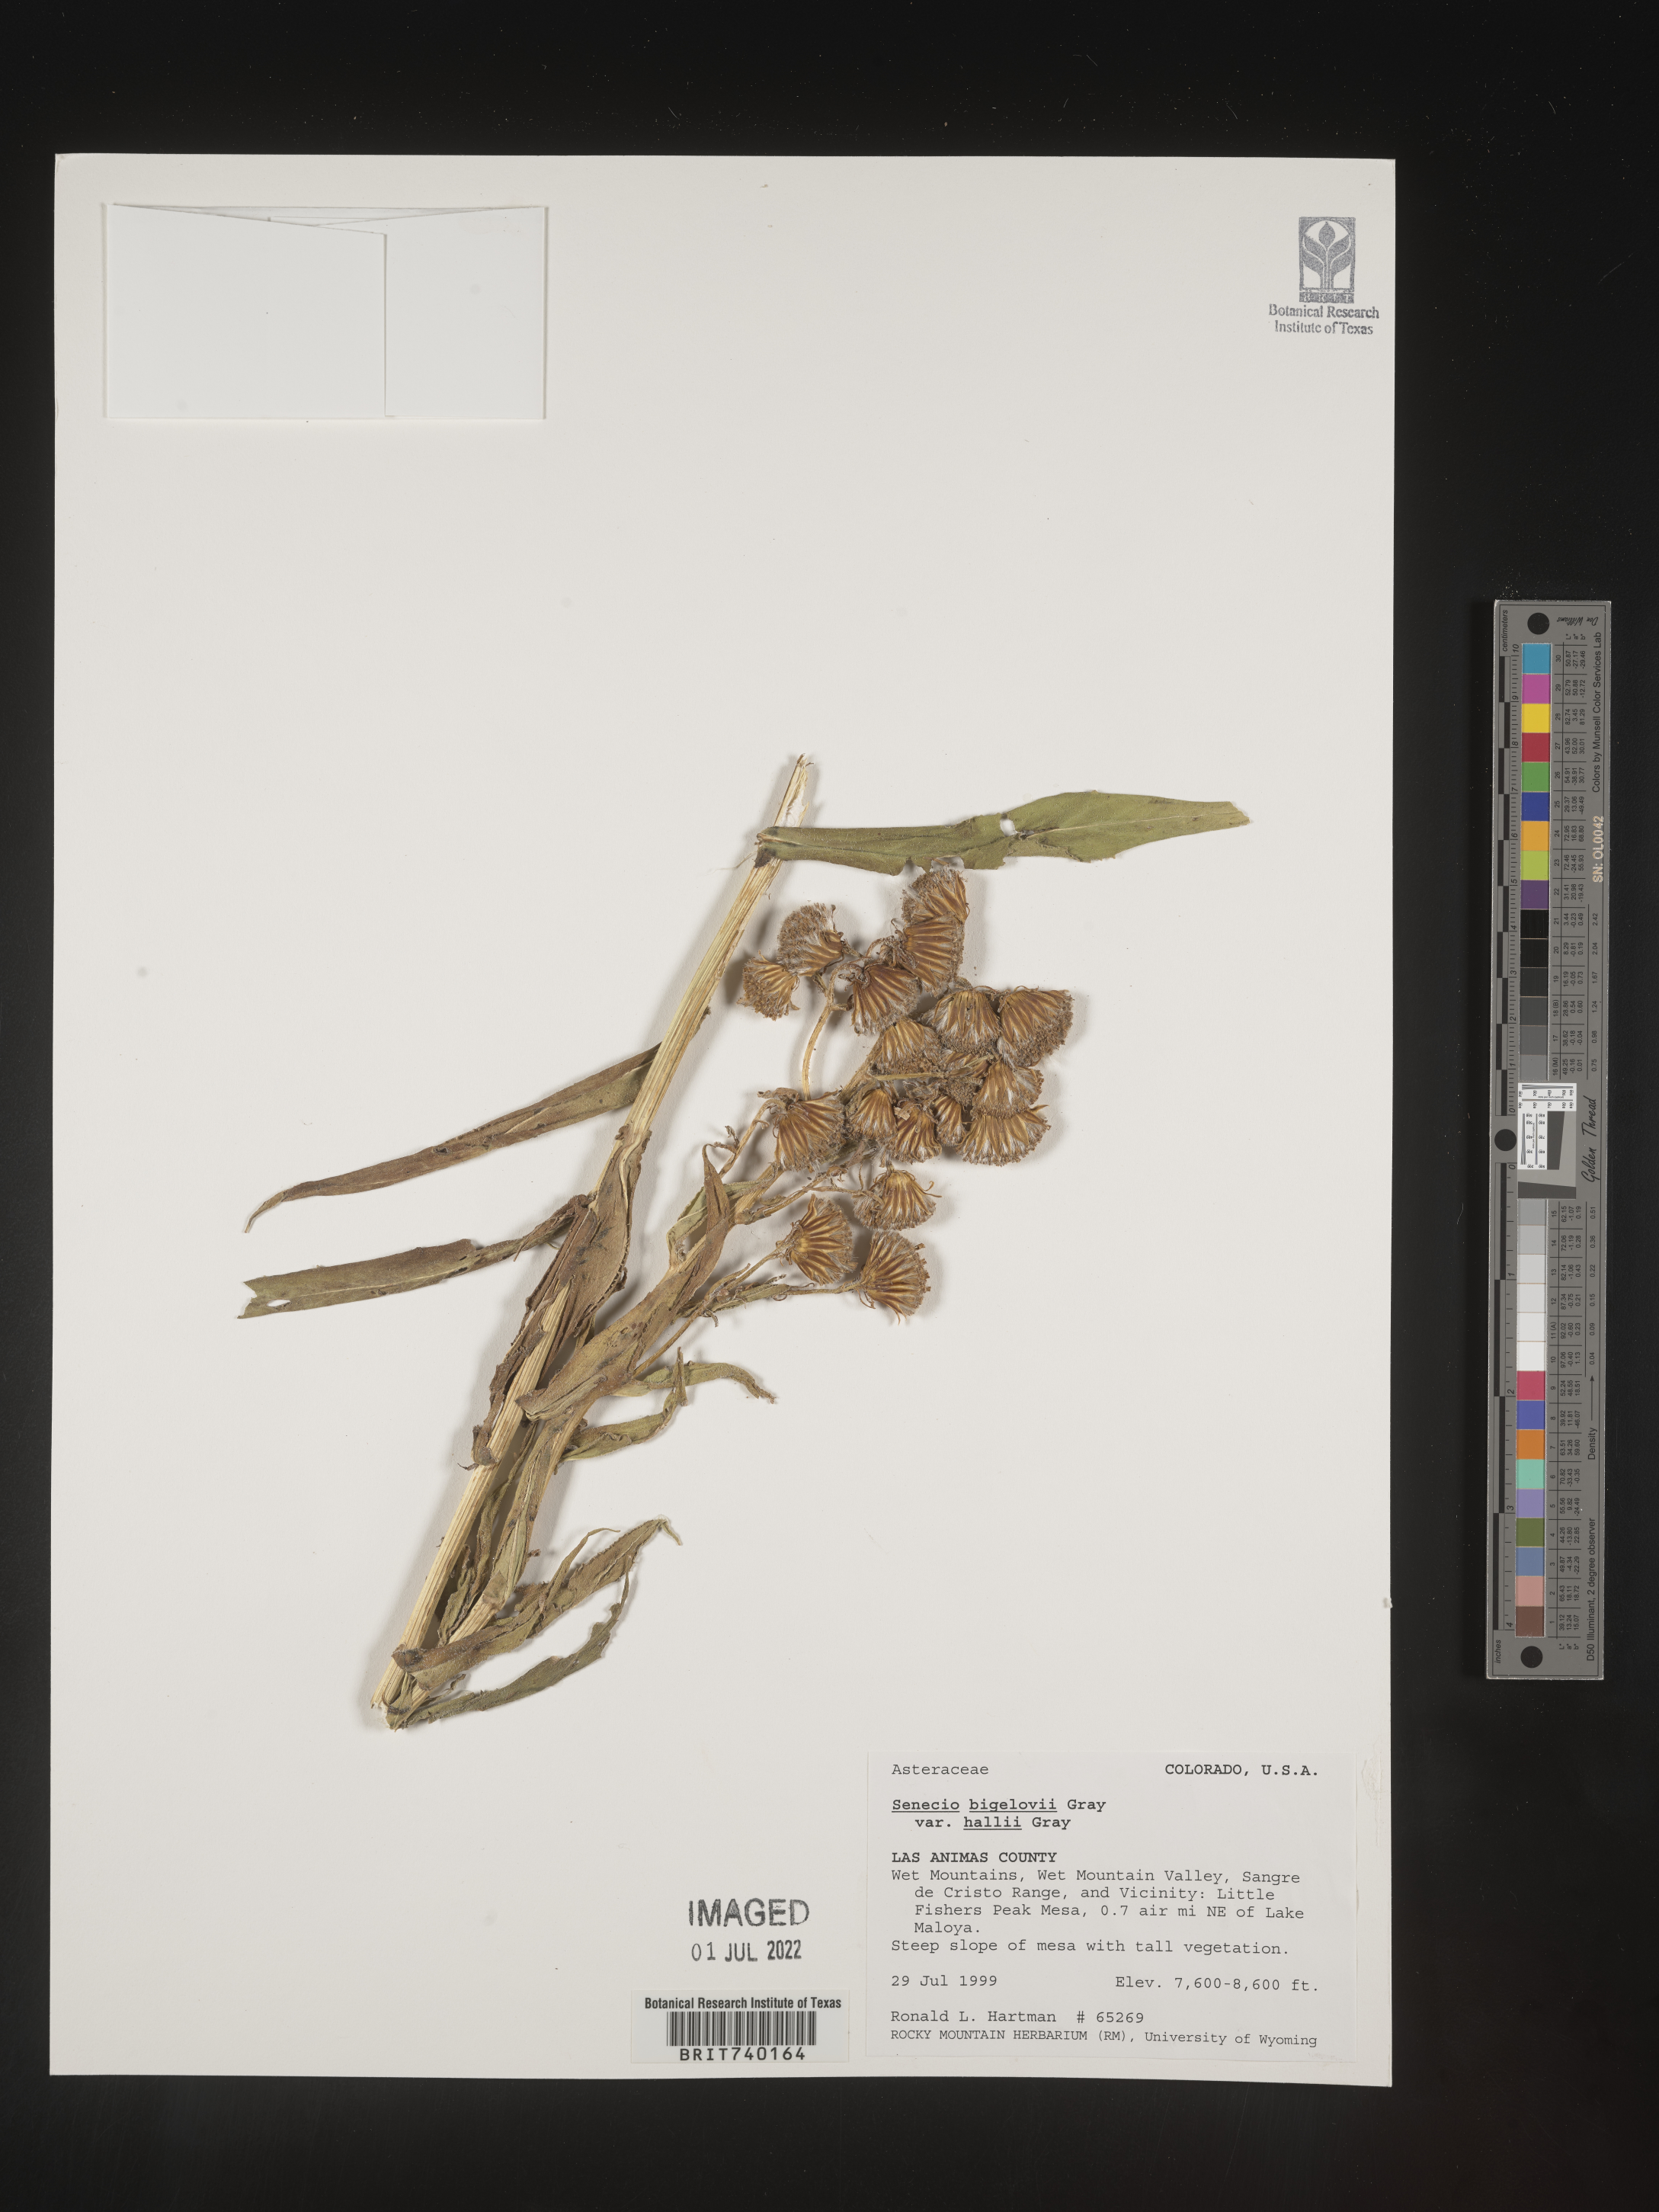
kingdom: Plantae
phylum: Tracheophyta
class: Magnoliopsida
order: Asterales
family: Asteraceae
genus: Senecio
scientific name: Senecio bigelovii
